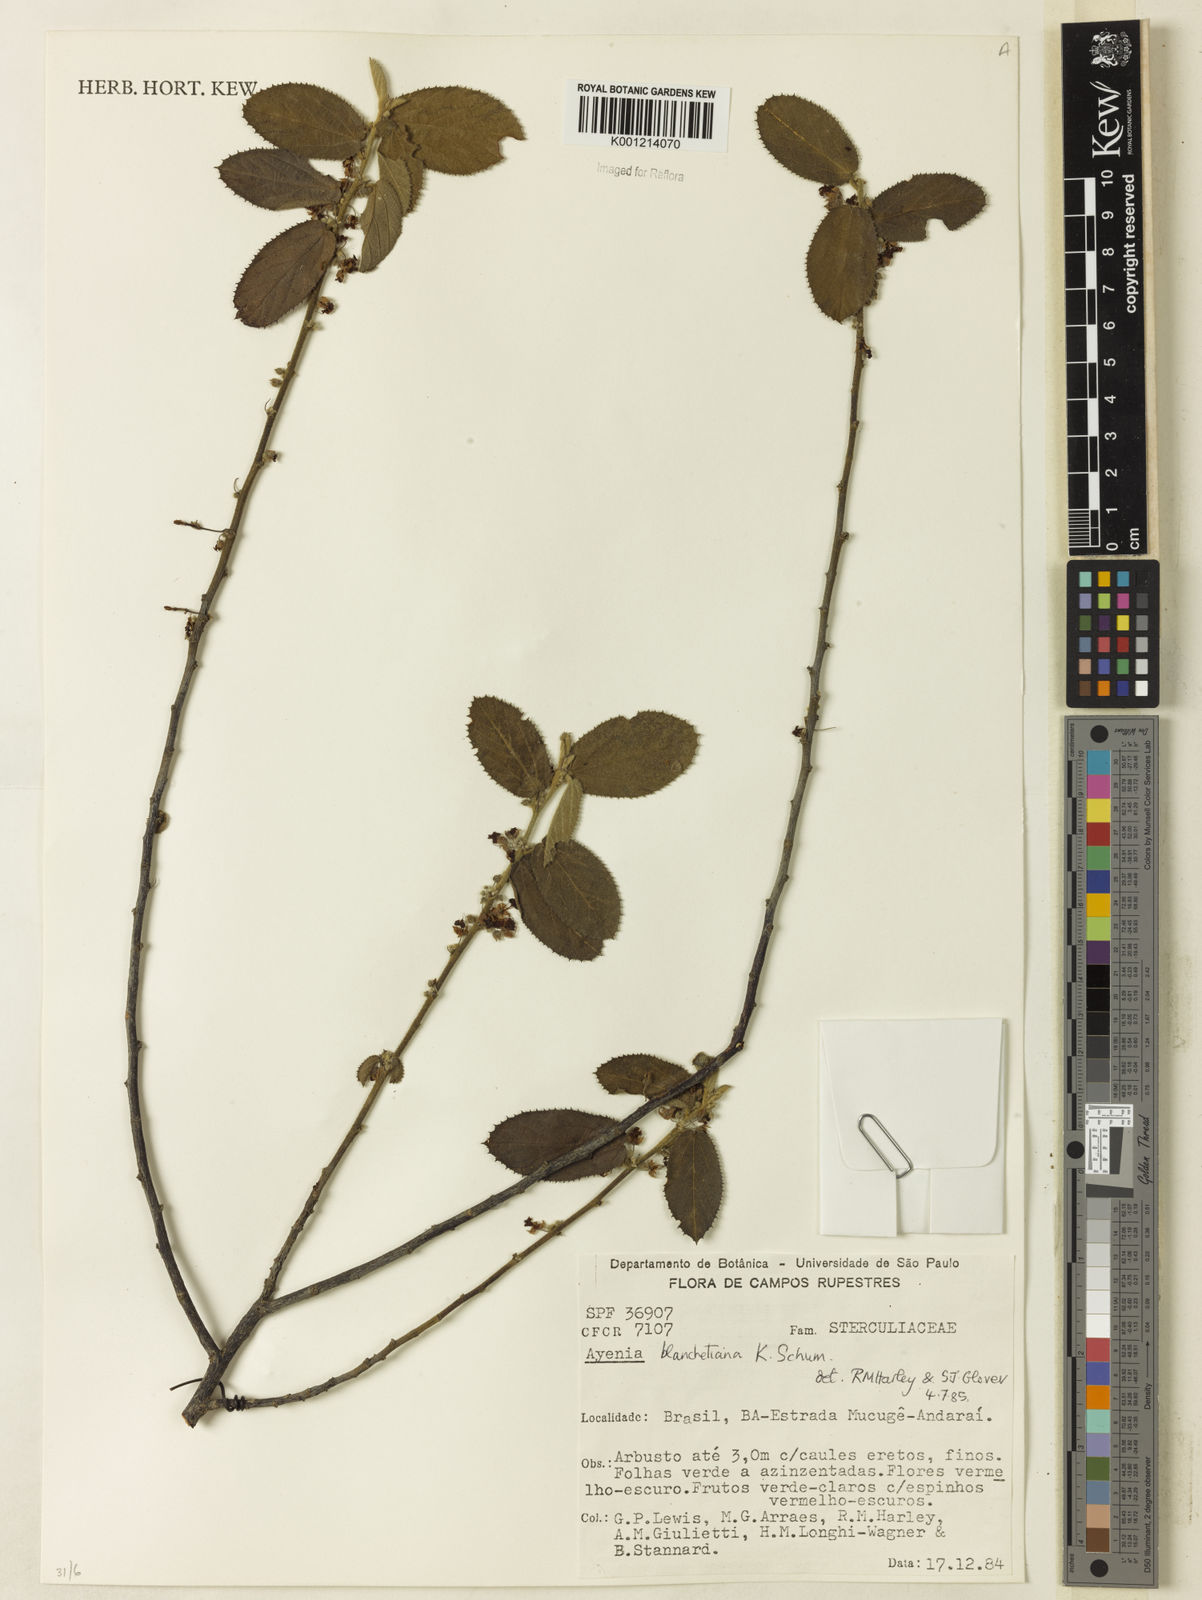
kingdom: Plantae
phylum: Tracheophyta
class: Magnoliopsida
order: Malvales
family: Malvaceae
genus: Ayenia
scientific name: Ayenia blanchetiana
